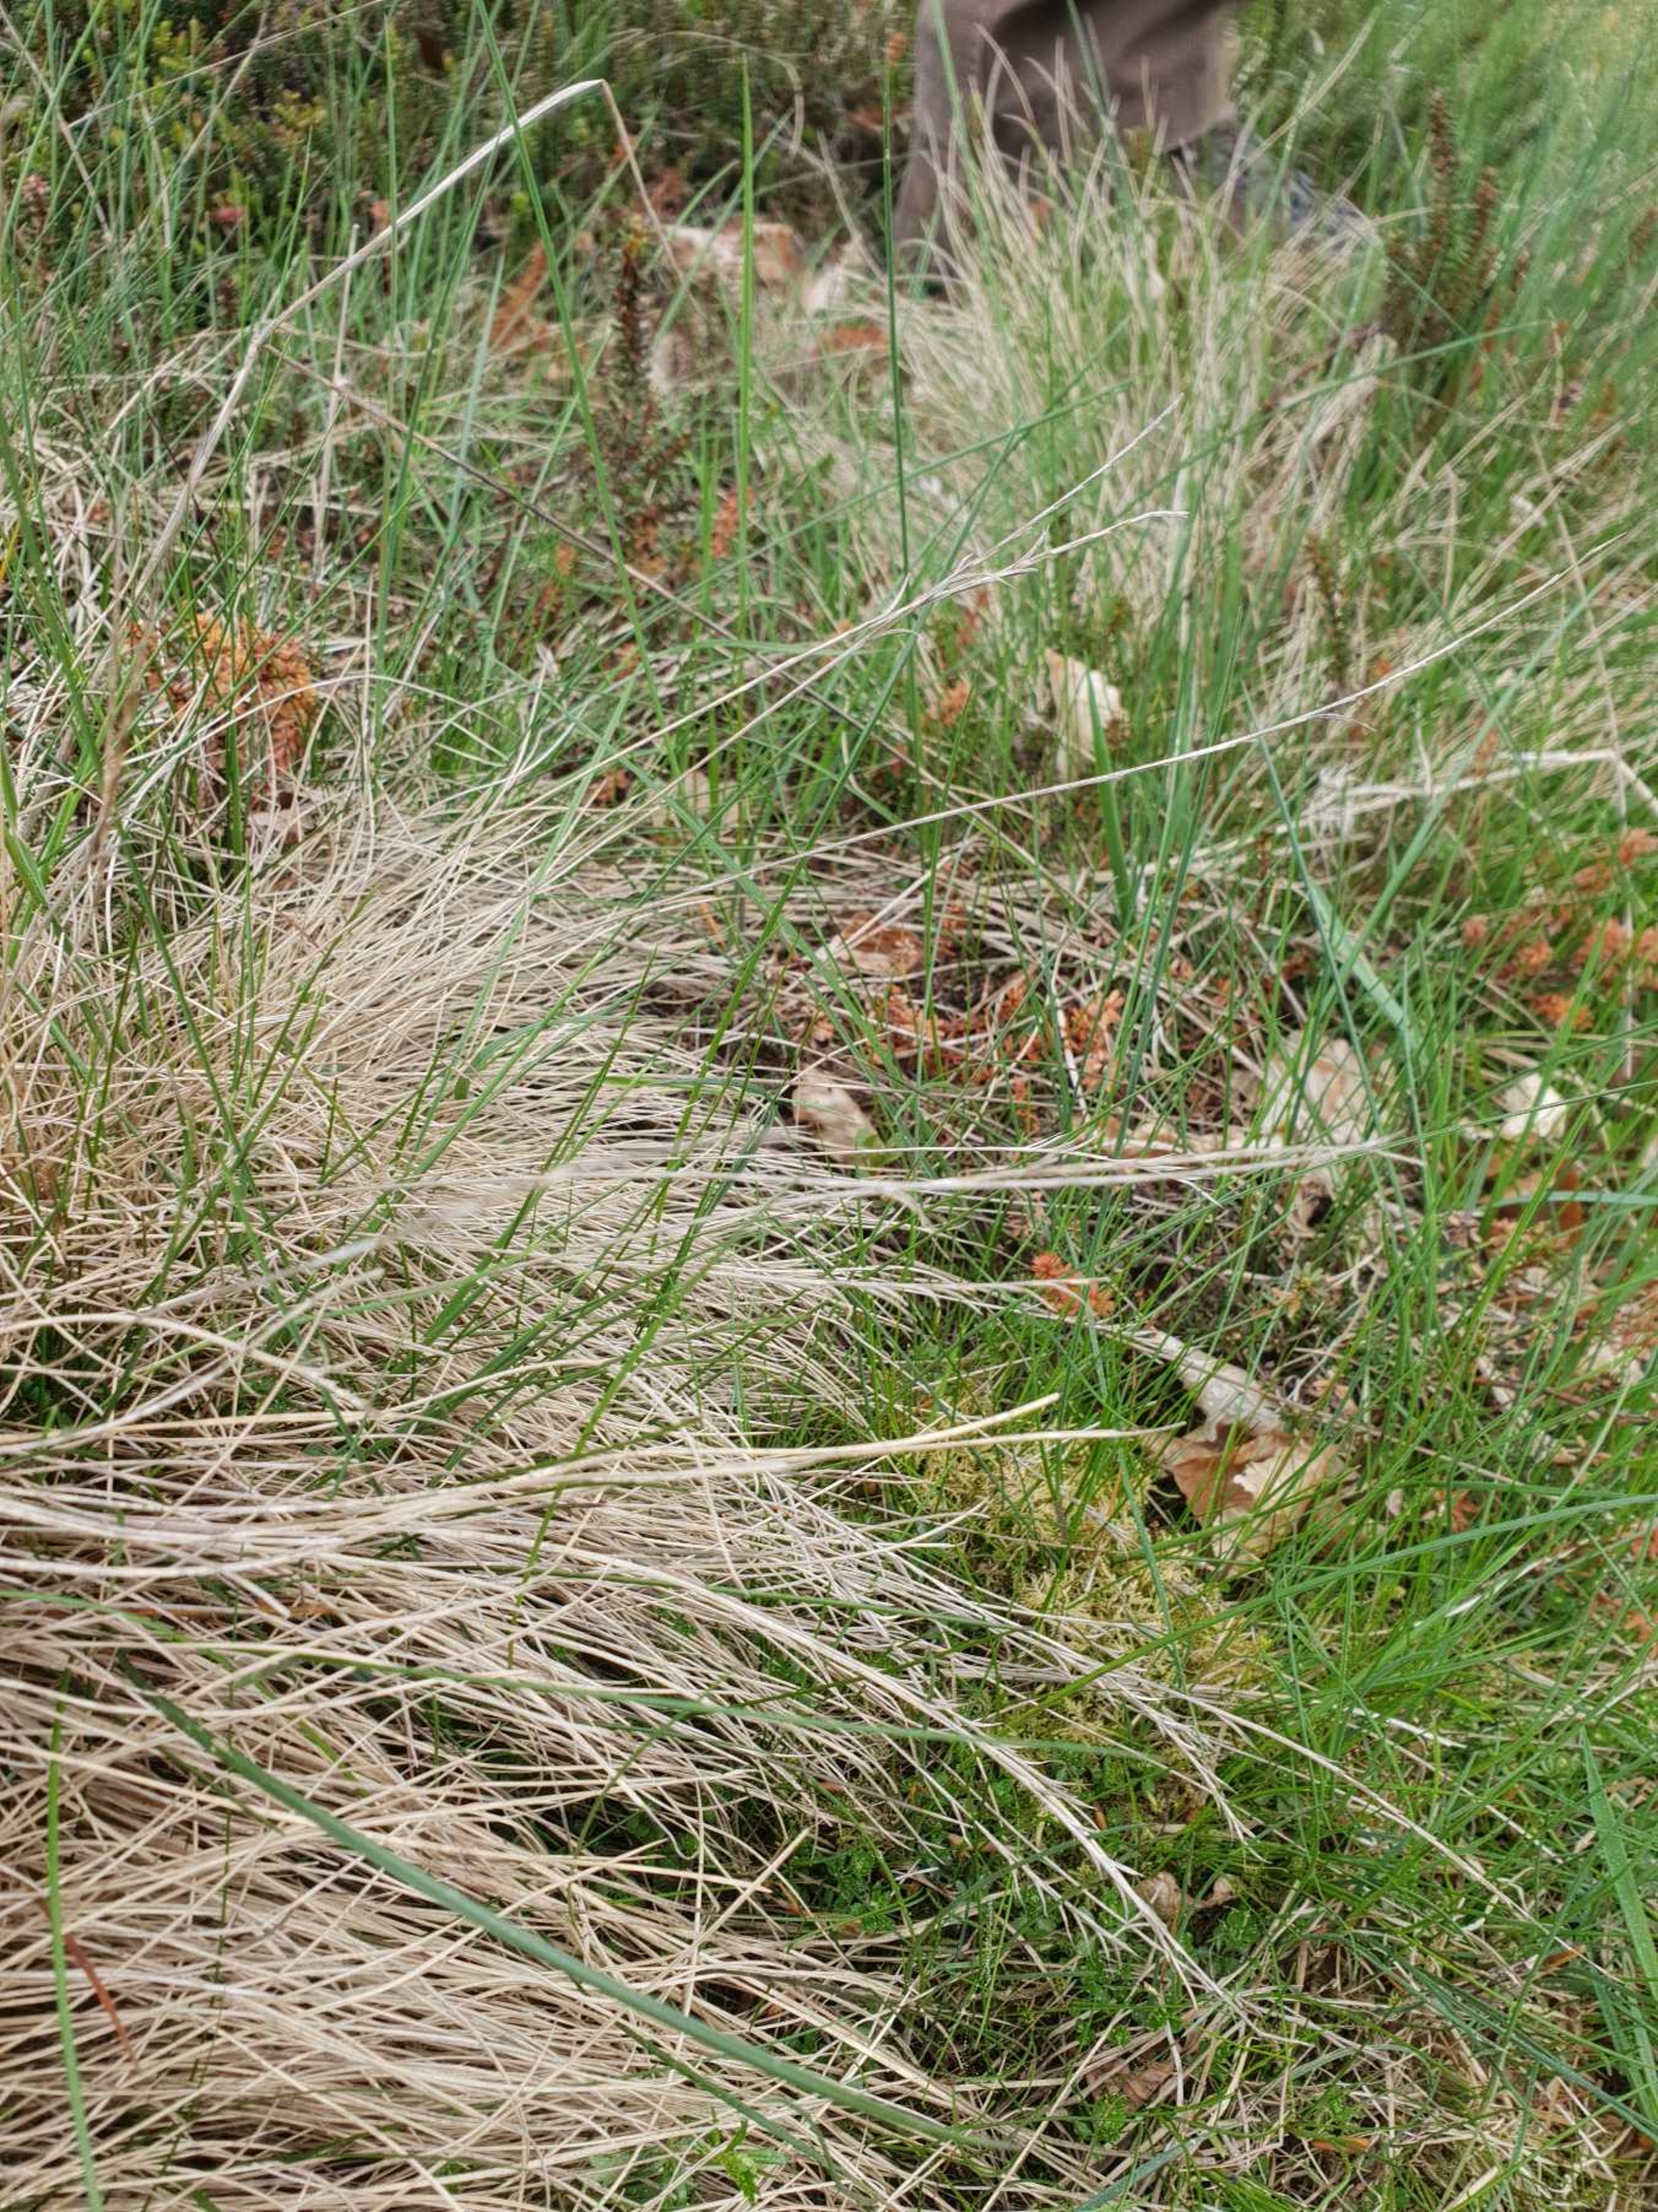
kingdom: Plantae
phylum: Tracheophyta
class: Liliopsida
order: Poales
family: Poaceae
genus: Nardus
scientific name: Nardus stricta
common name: Katteskæg
